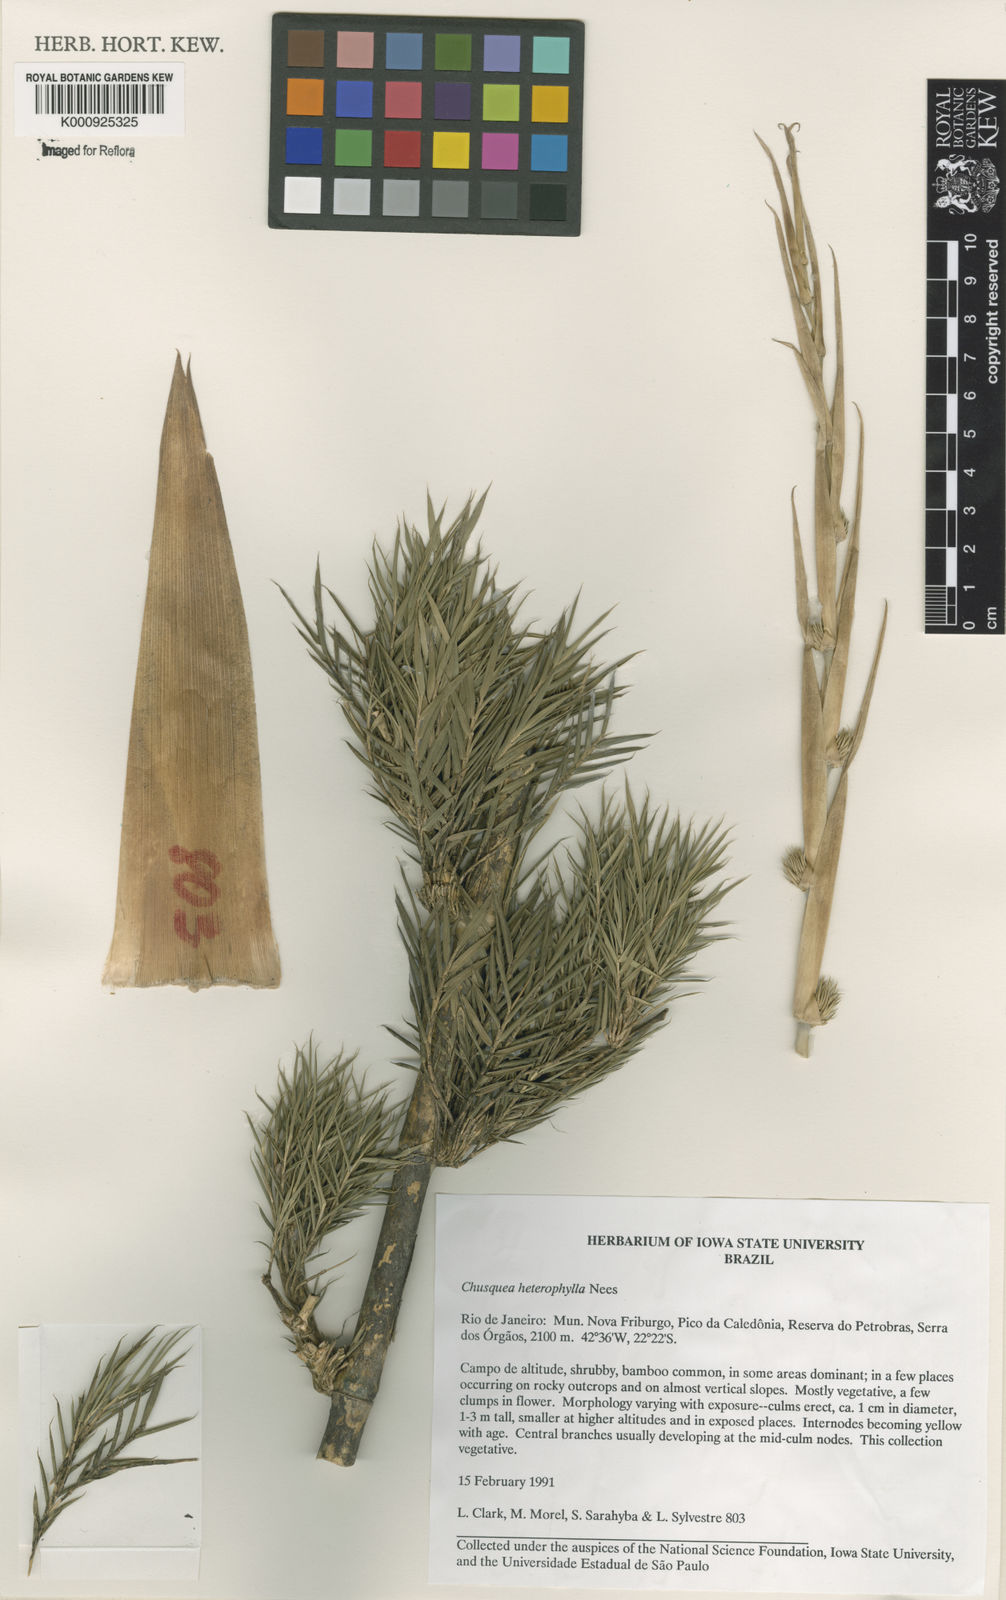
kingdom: Plantae
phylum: Tracheophyta
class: Liliopsida
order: Poales
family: Poaceae
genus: Chusquea
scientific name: Chusquea heterophylla
